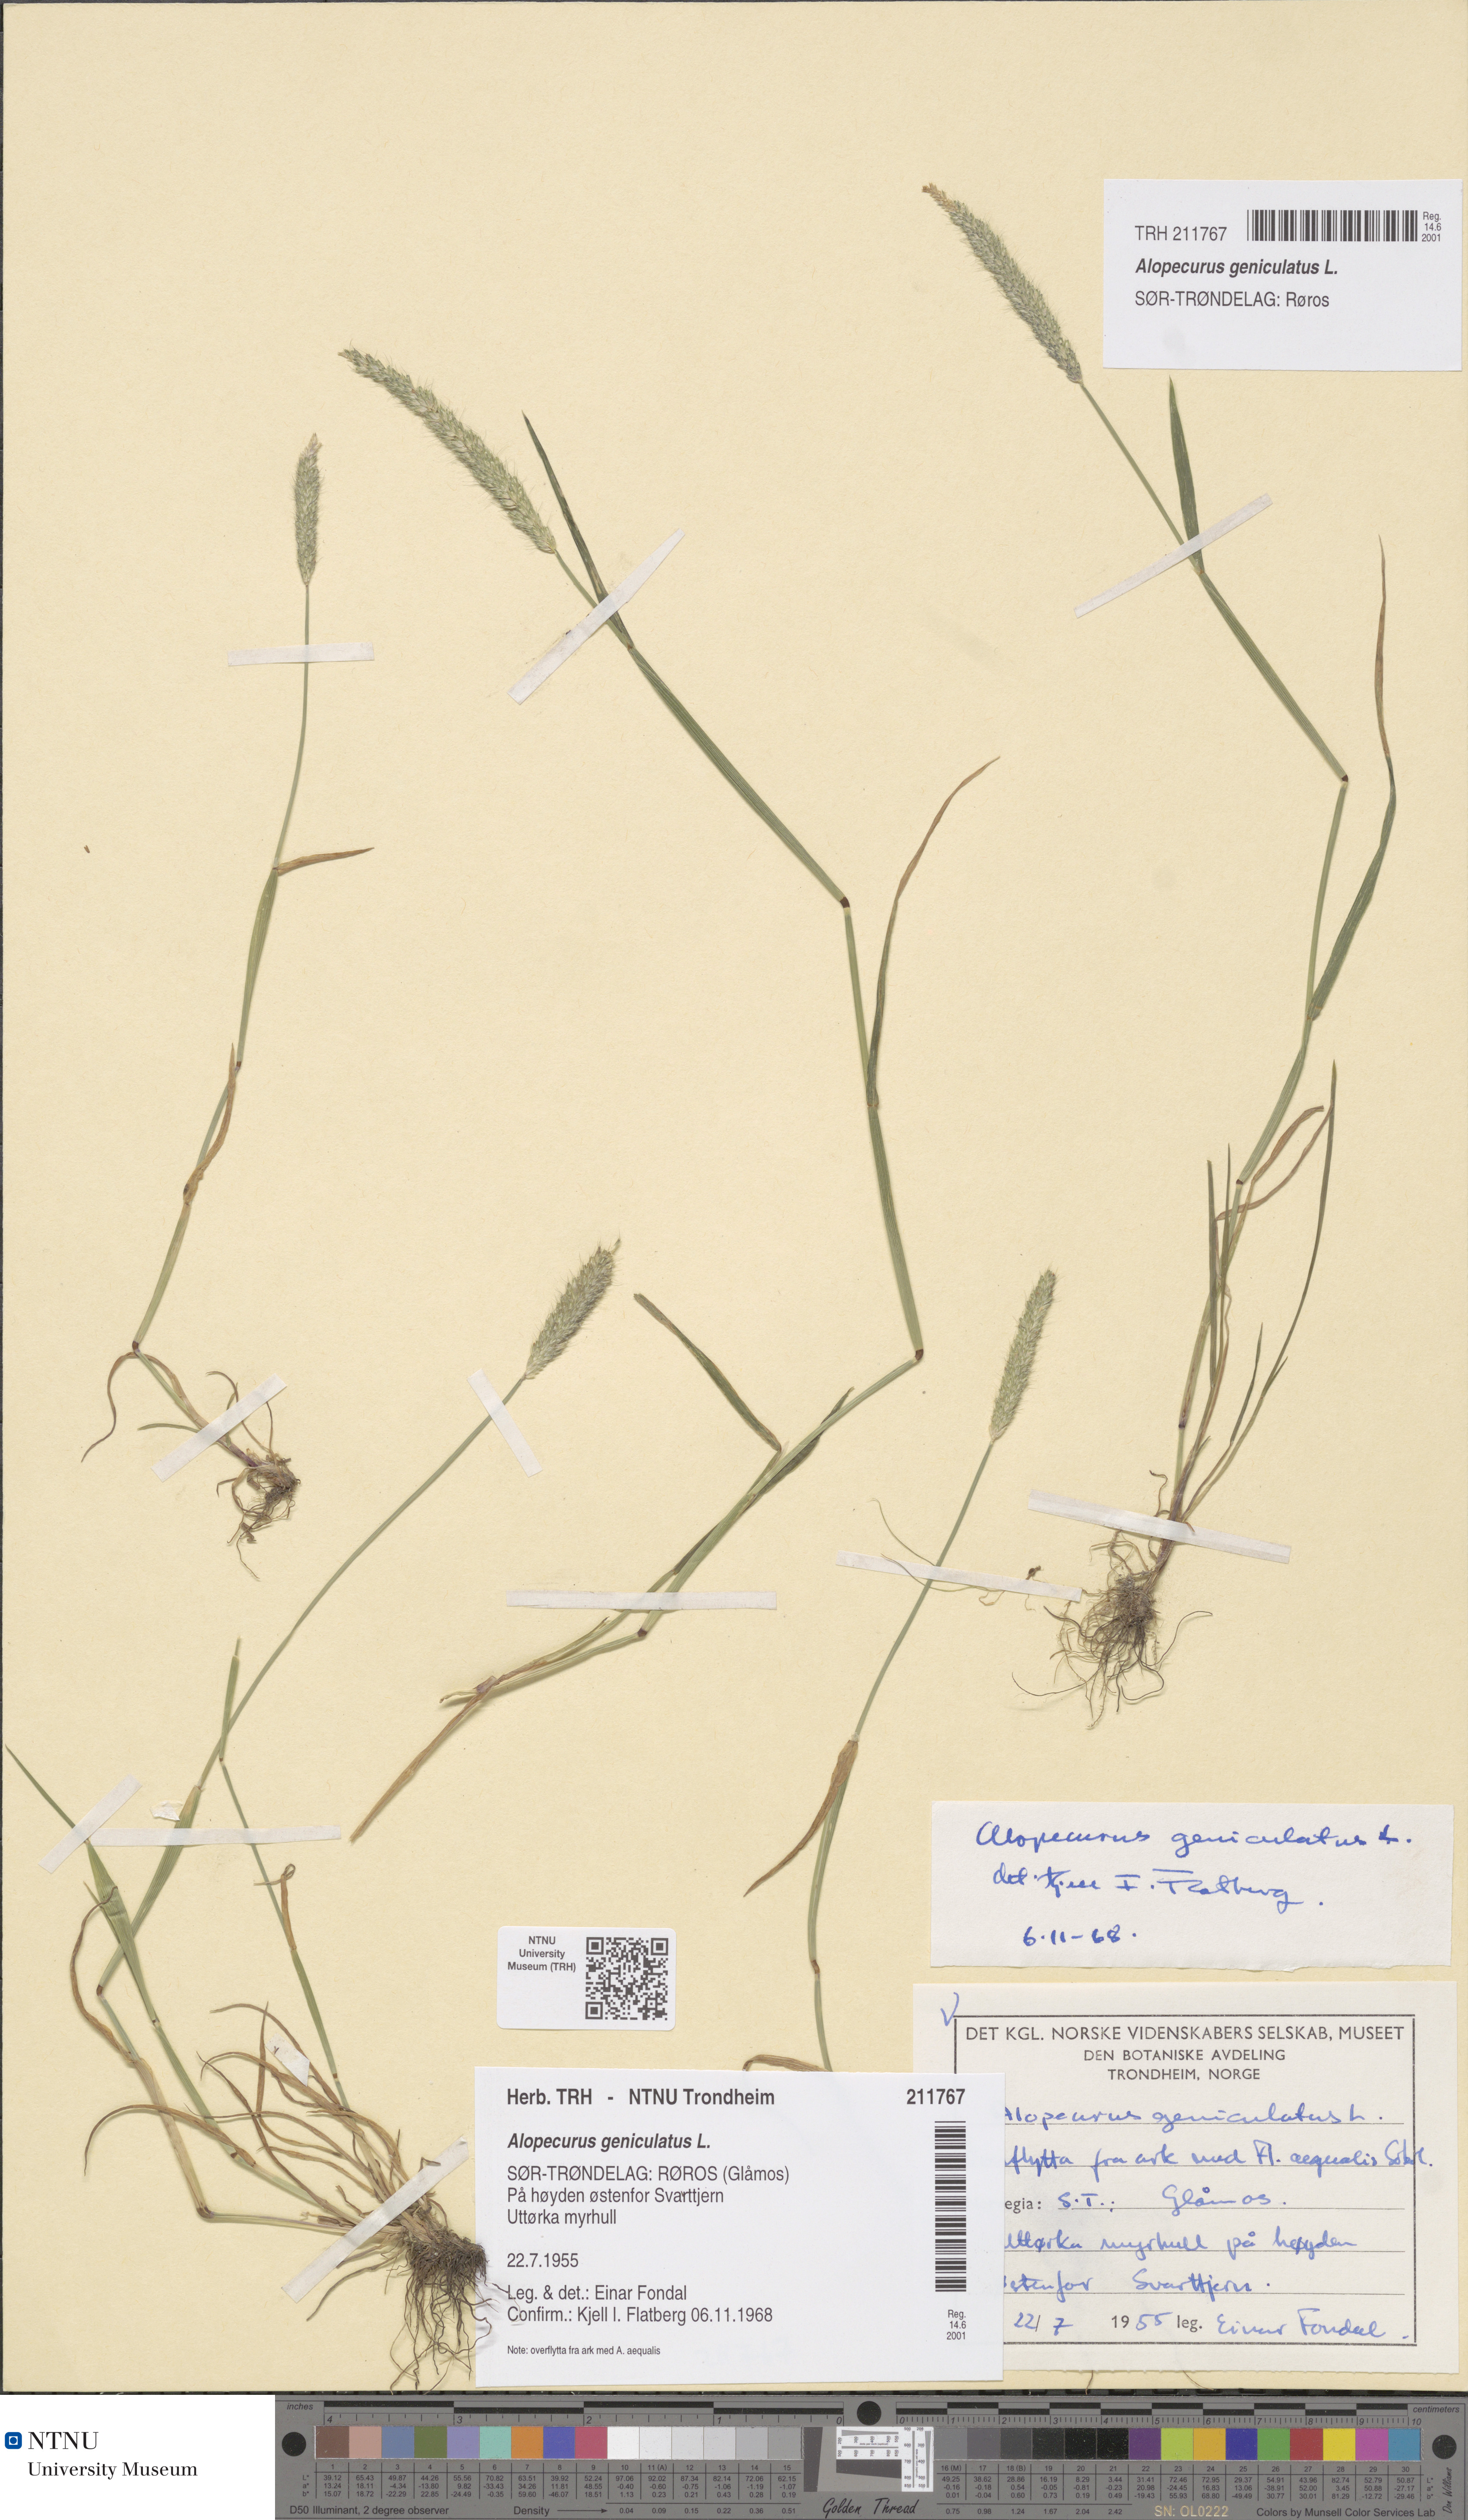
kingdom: Plantae
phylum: Tracheophyta
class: Liliopsida
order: Poales
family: Poaceae
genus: Alopecurus
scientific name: Alopecurus geniculatus
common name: Water foxtail
